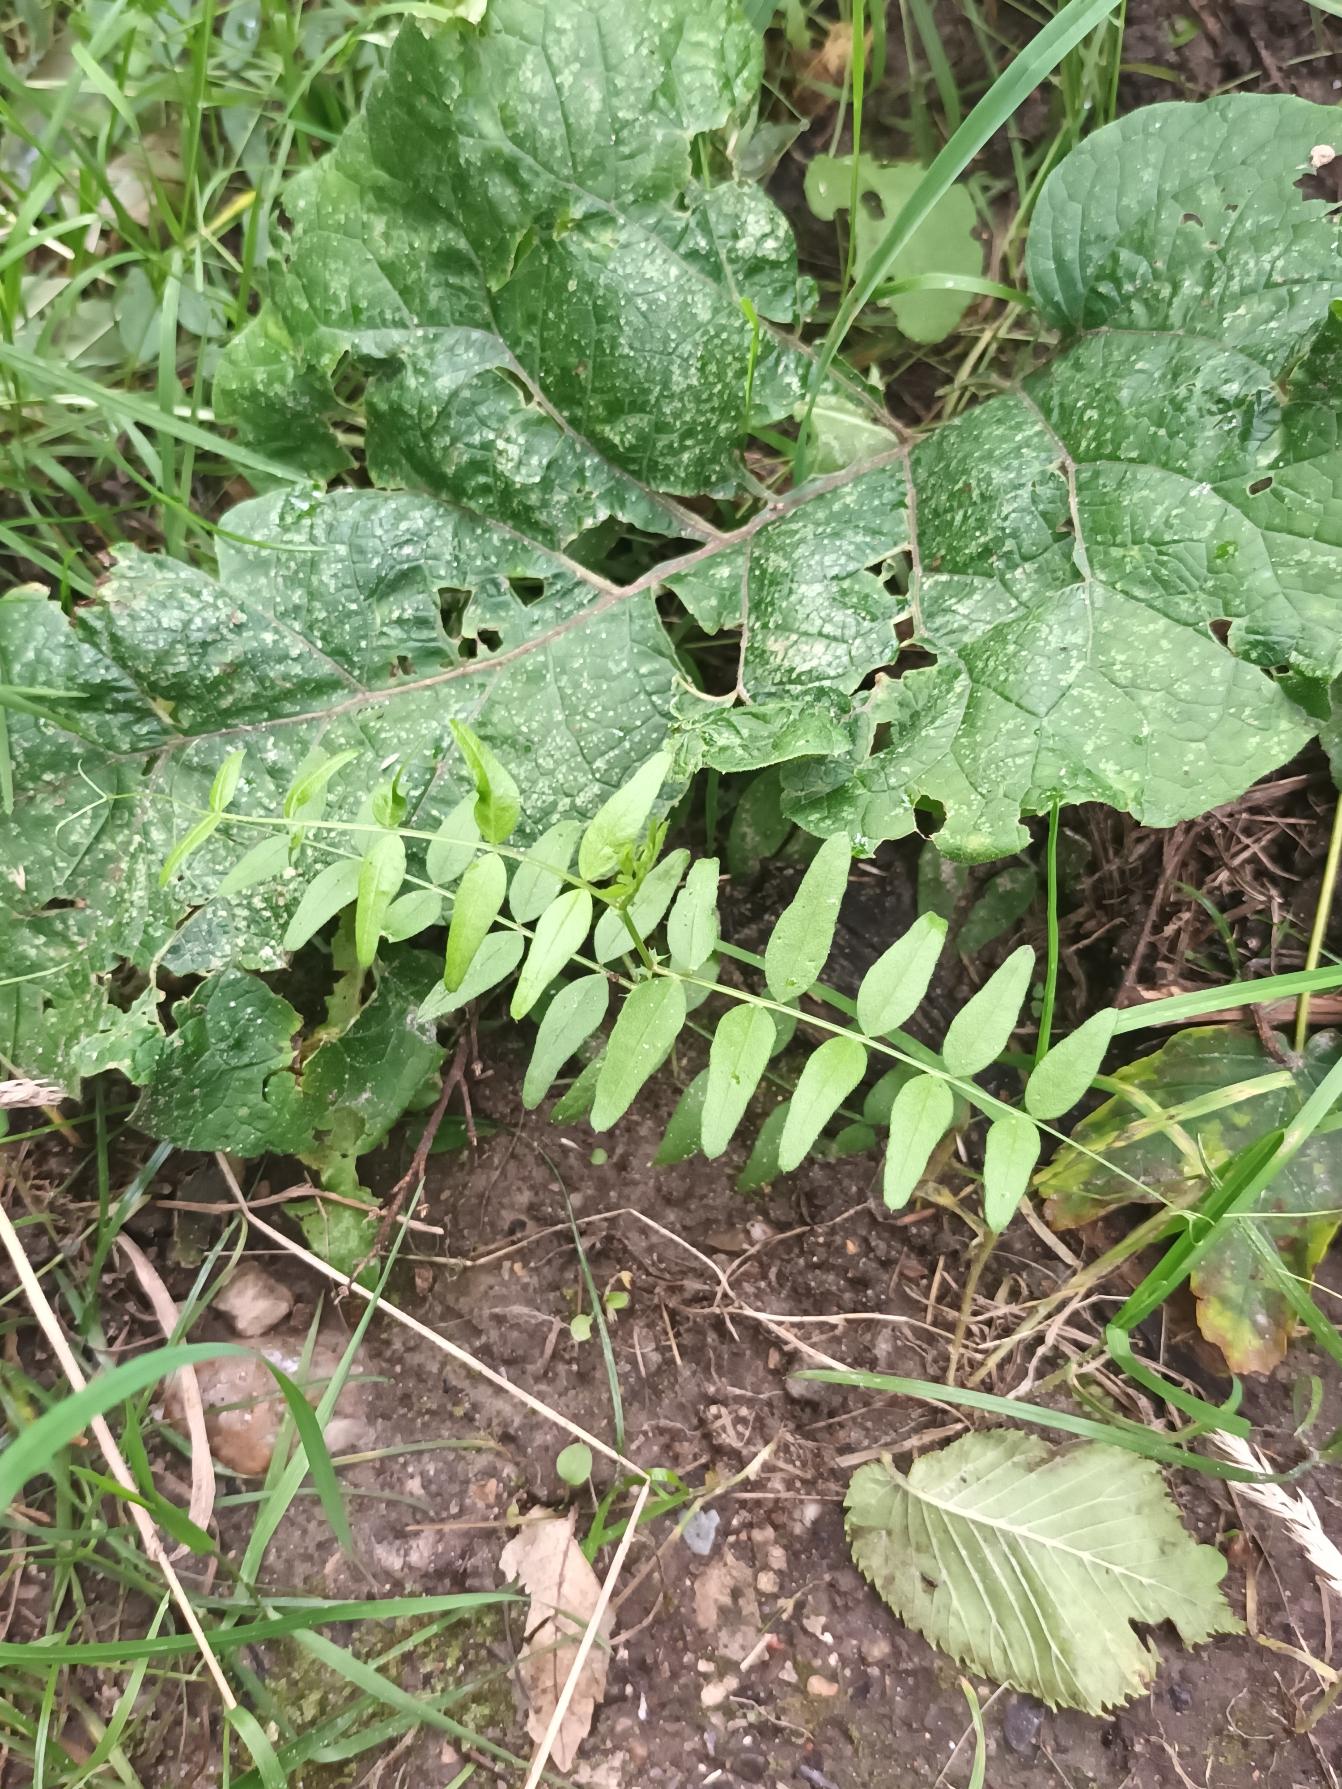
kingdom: Plantae
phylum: Tracheophyta
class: Magnoliopsida
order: Fabales
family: Fabaceae
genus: Vicia
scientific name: Vicia sepium
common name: Gærde-vikke
